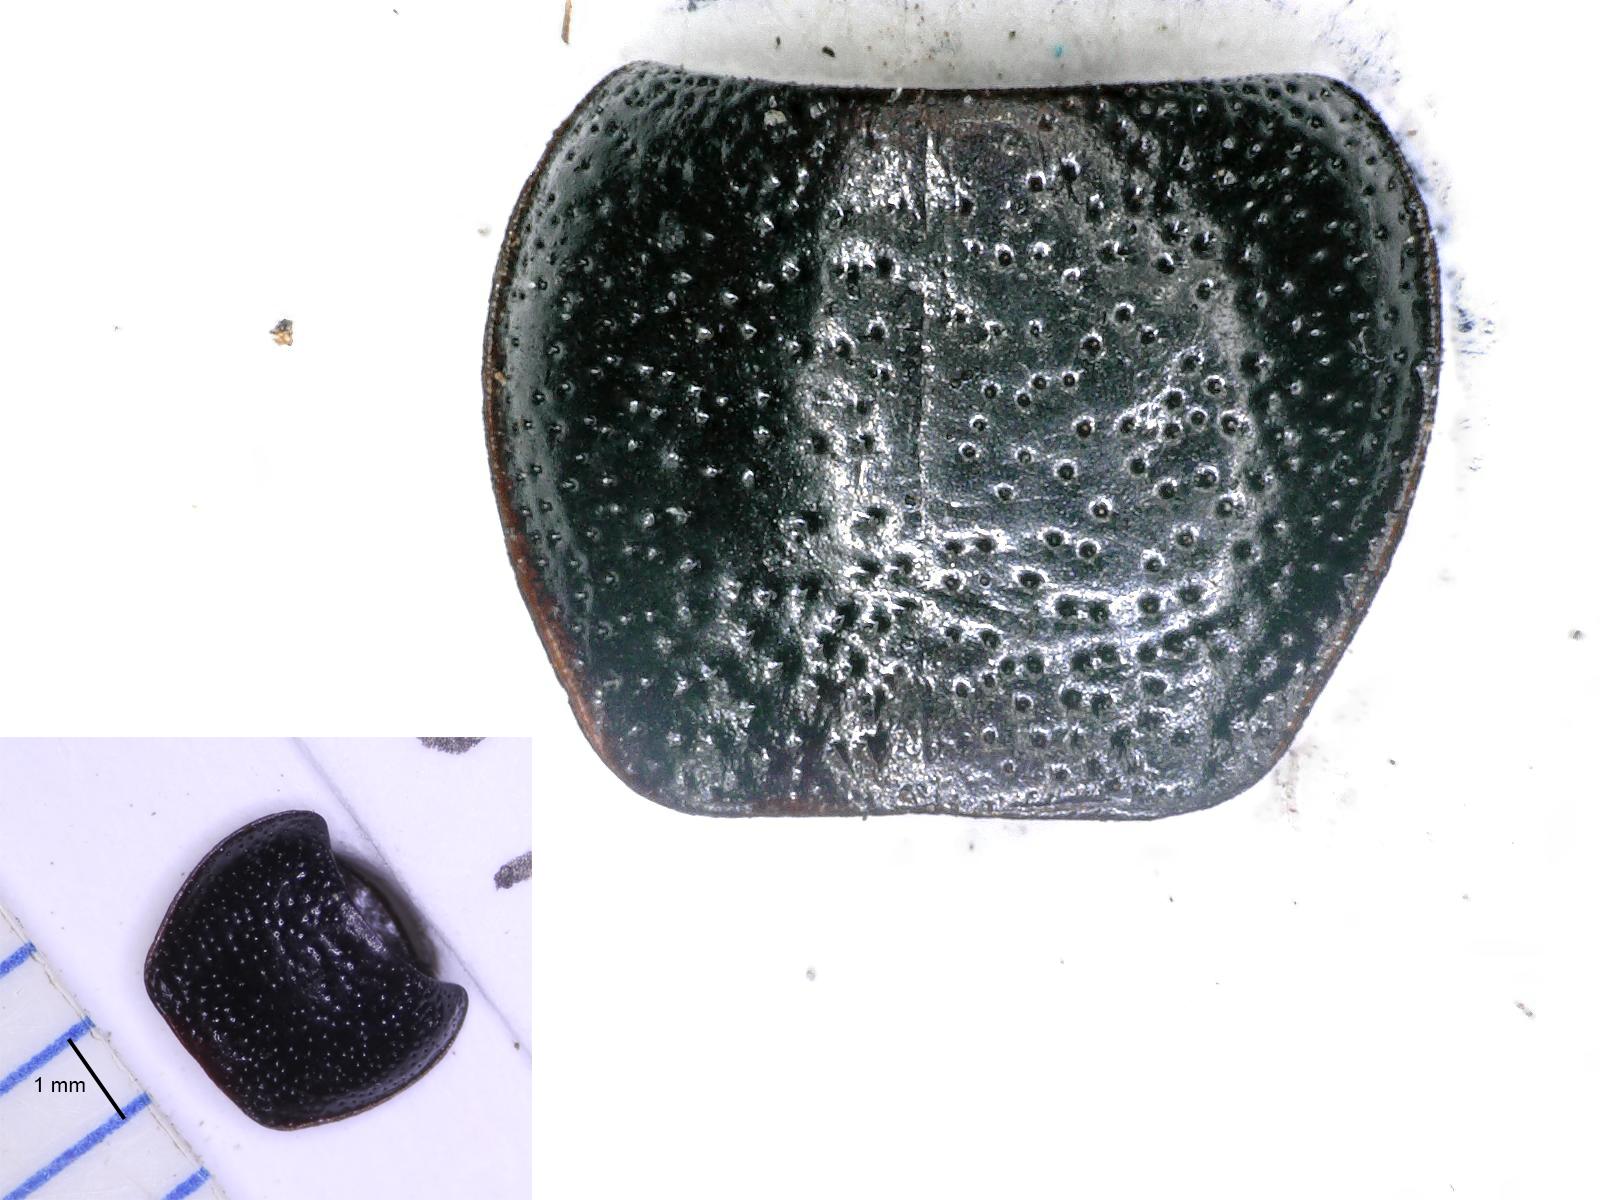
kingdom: Animalia
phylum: Arthropoda
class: Insecta
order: Coleoptera
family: Carabidae
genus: Dicheirus
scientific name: Dicheirus dilatatus
